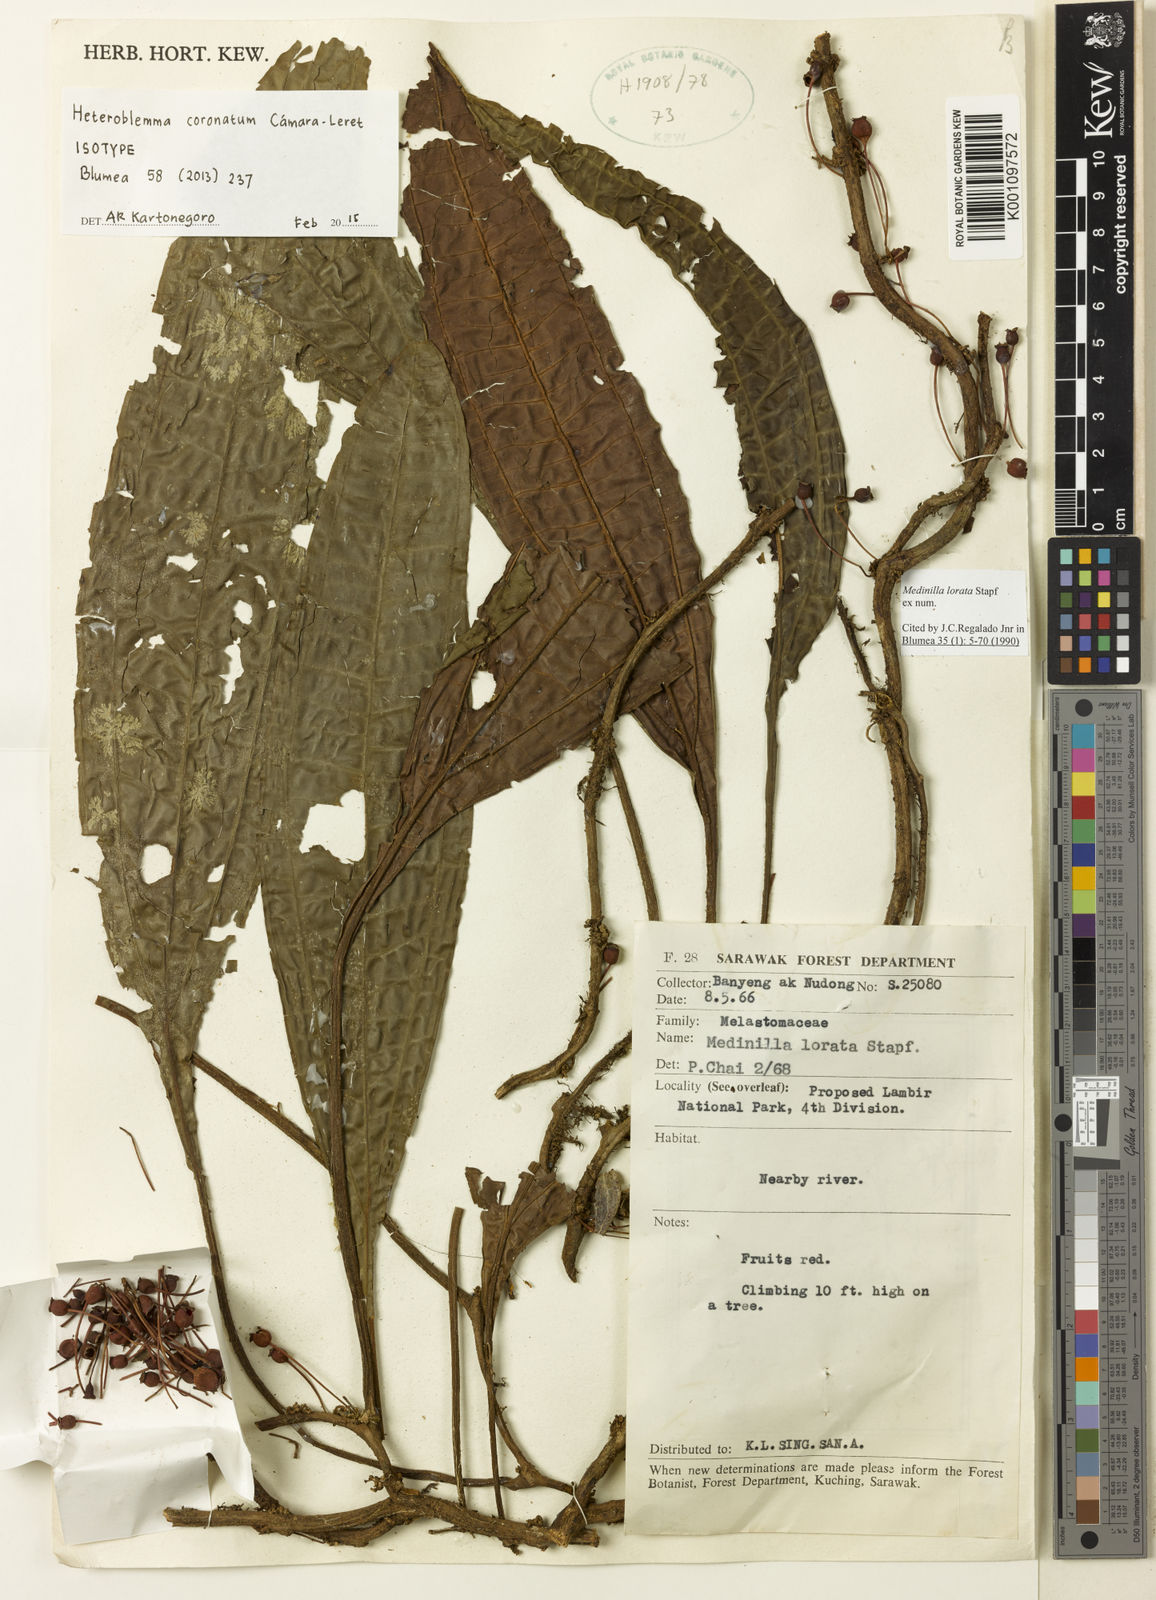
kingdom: Plantae
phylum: Tracheophyta
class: Magnoliopsida
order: Myrtales
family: Melastomataceae
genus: Heteroblemma
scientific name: Heteroblemma
